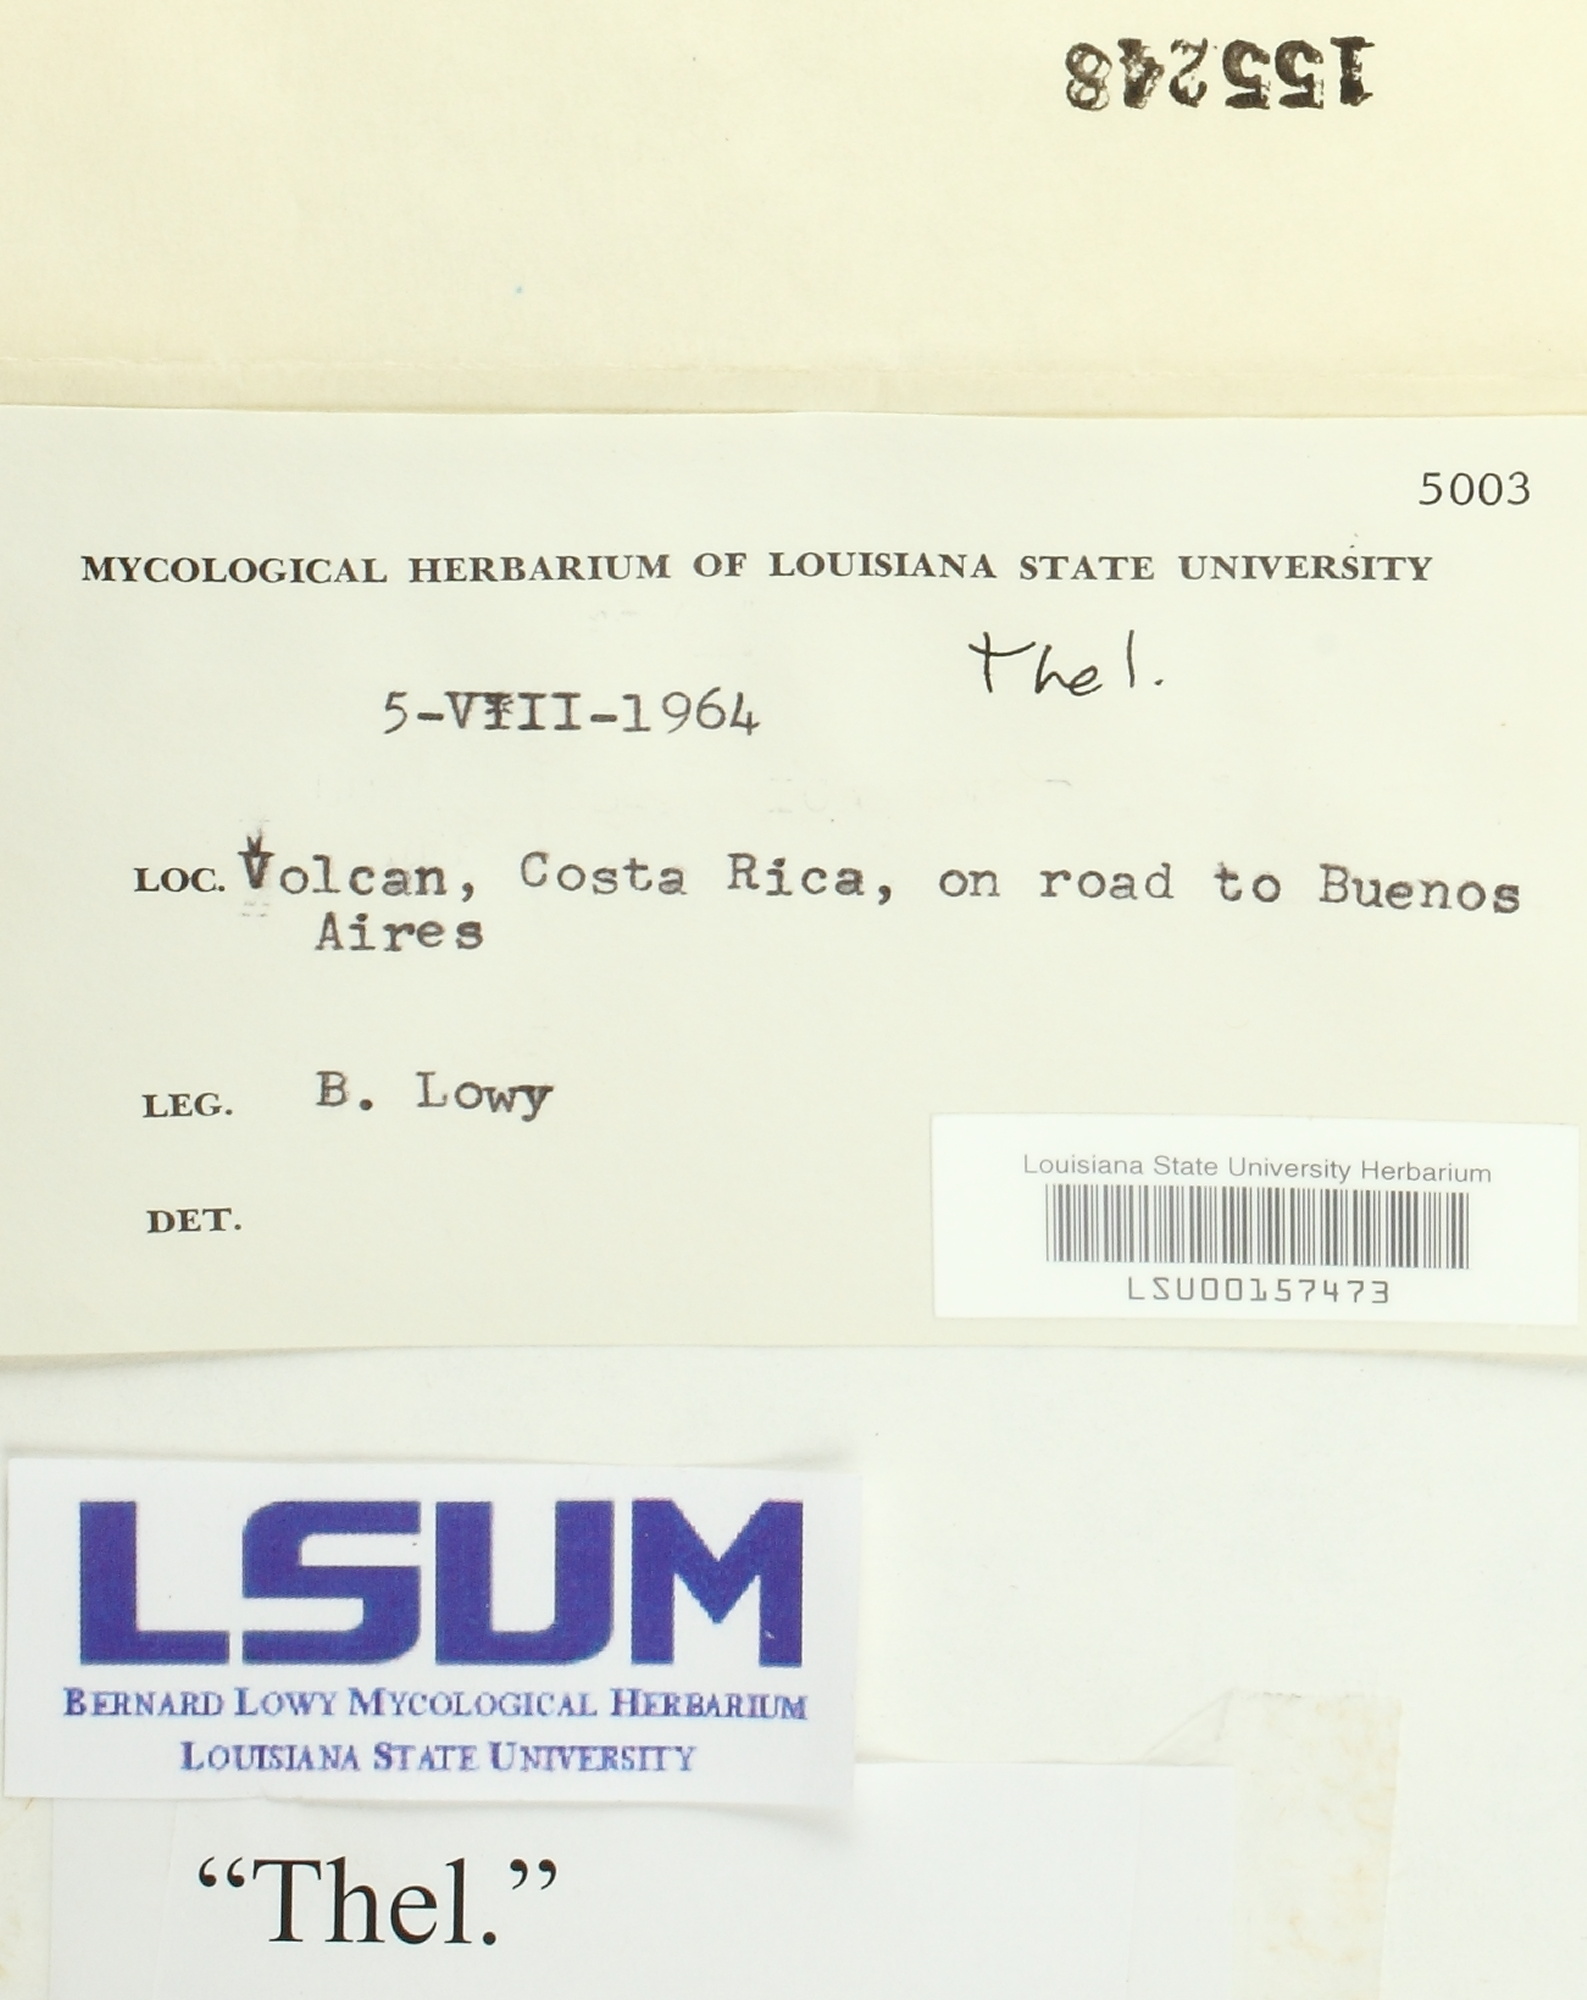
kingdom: Fungi
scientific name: Fungi
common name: Fungi
